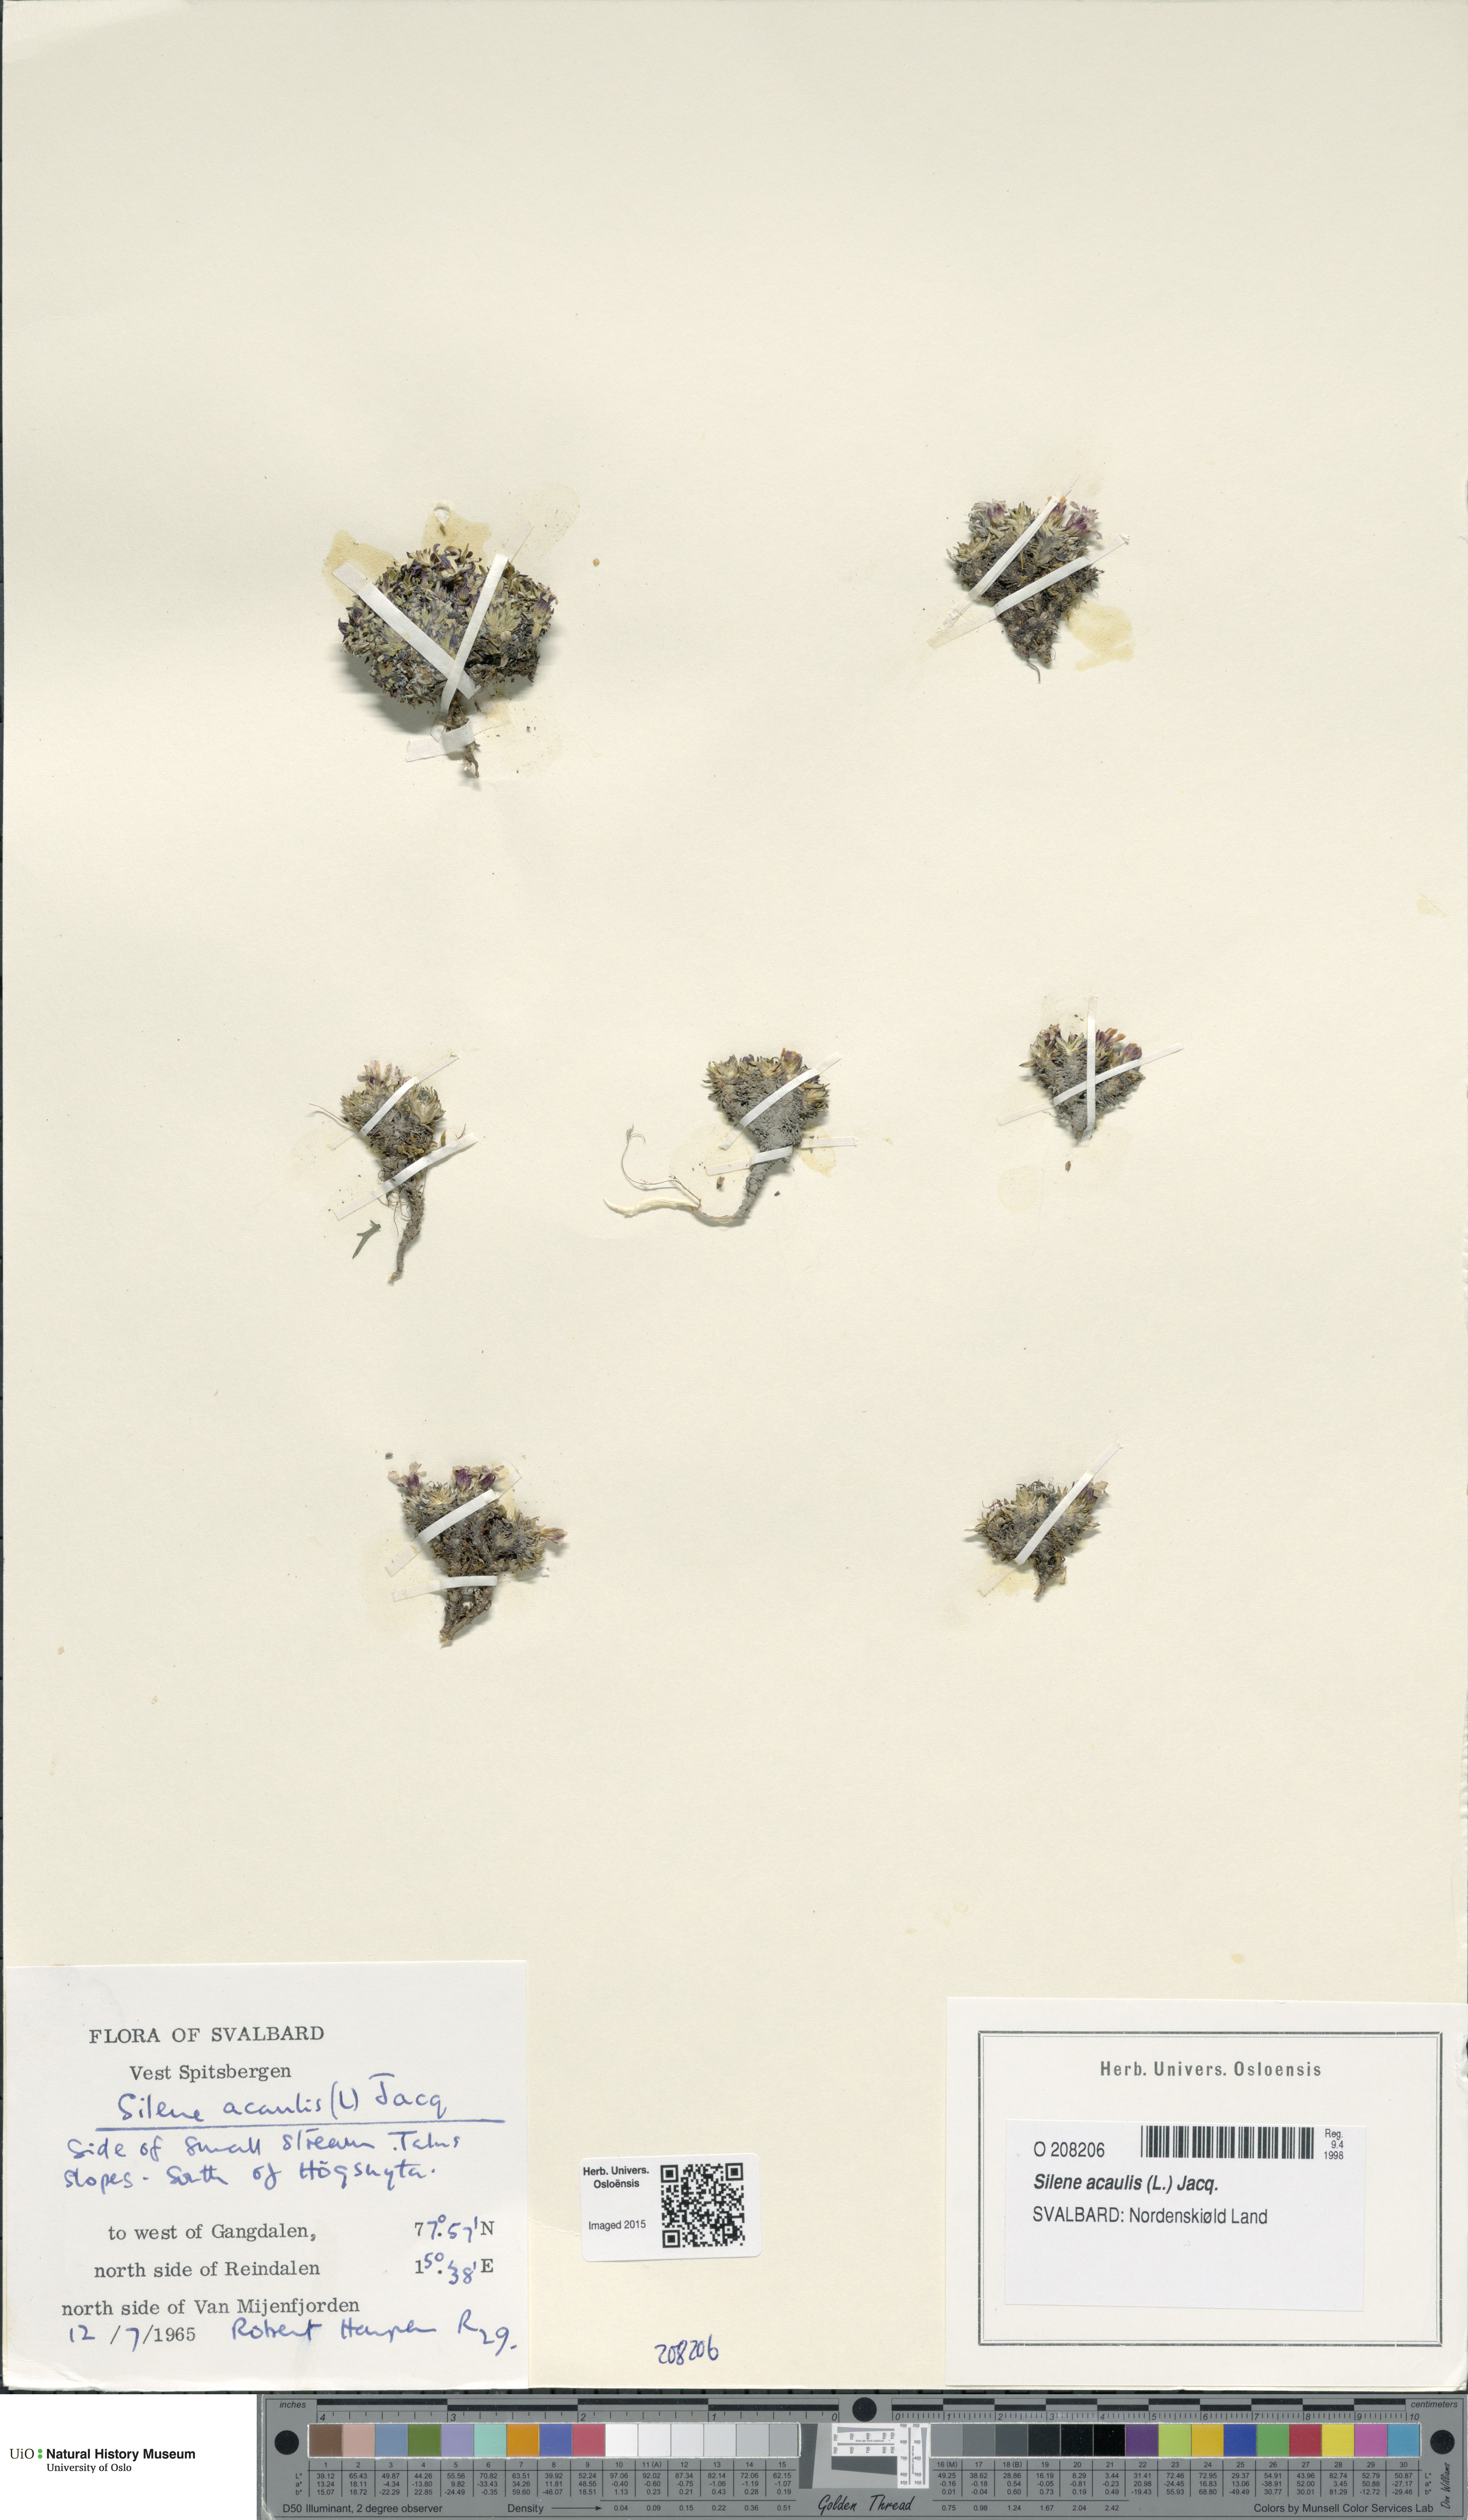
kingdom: Plantae
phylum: Tracheophyta
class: Magnoliopsida
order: Caryophyllales
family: Caryophyllaceae
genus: Silene
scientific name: Silene acaulis
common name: Moss campion
